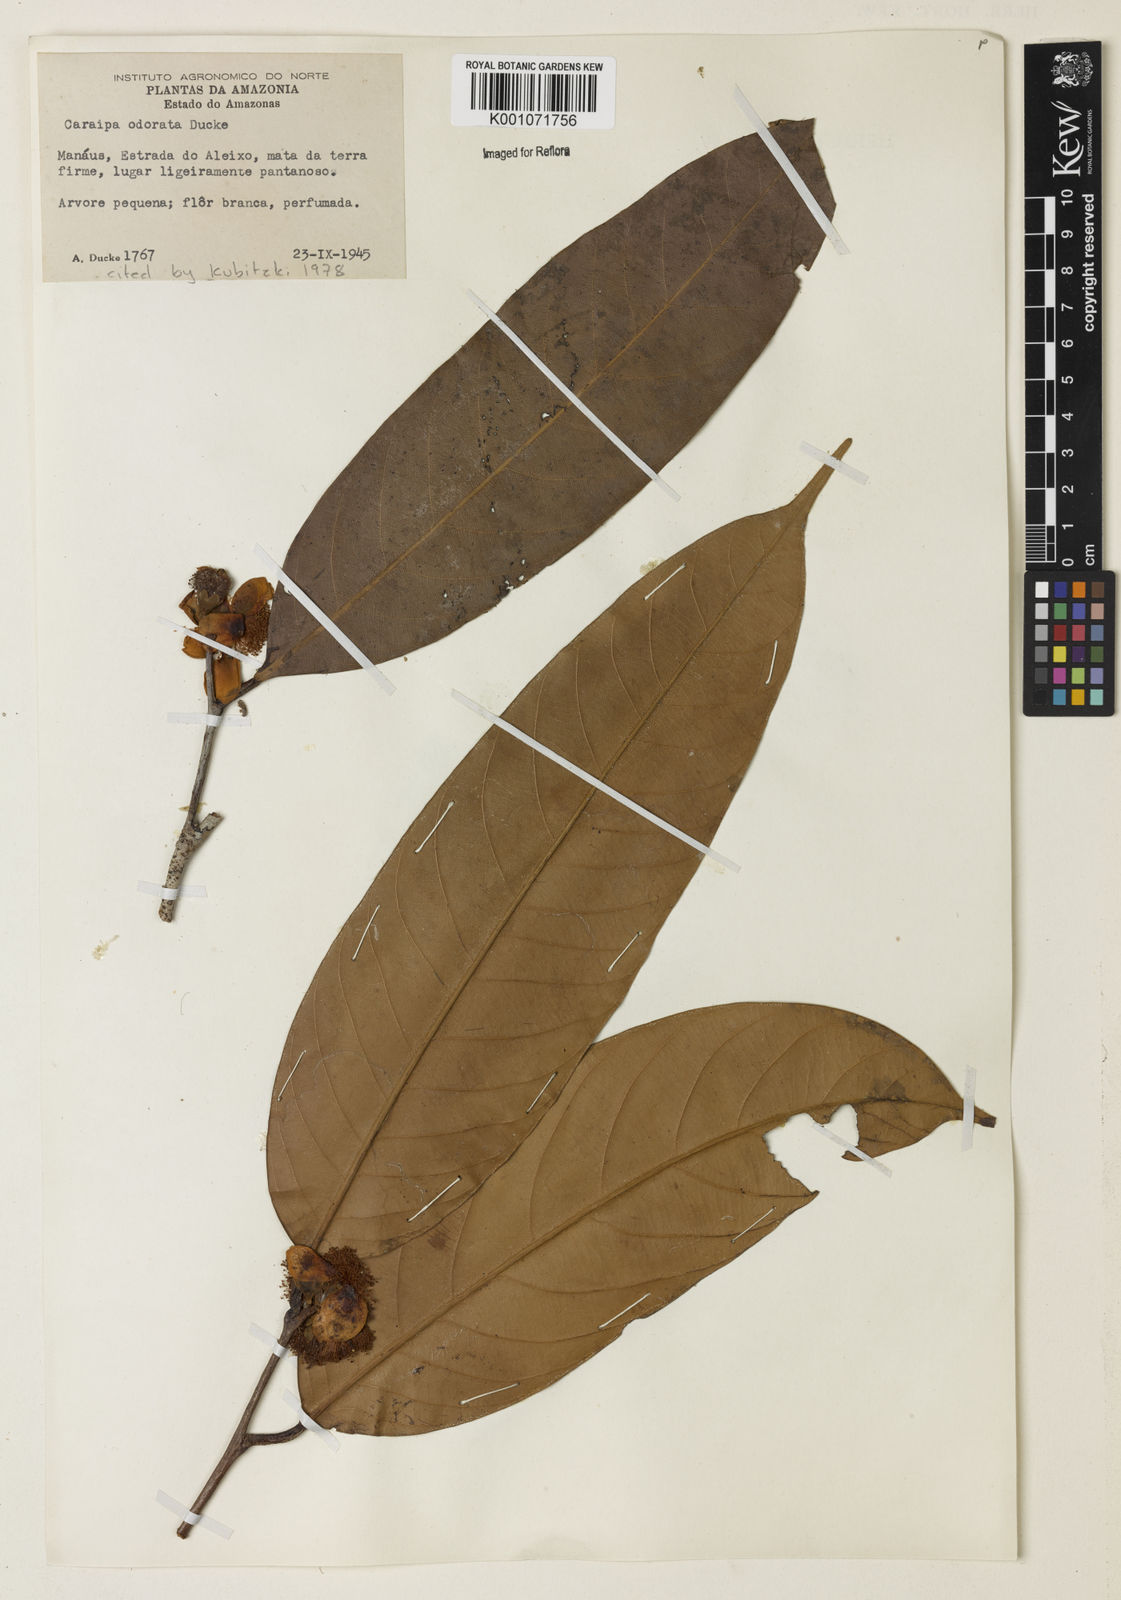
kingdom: Plantae
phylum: Tracheophyta
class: Magnoliopsida
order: Malpighiales
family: Calophyllaceae
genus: Caraipa
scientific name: Caraipa odorata
